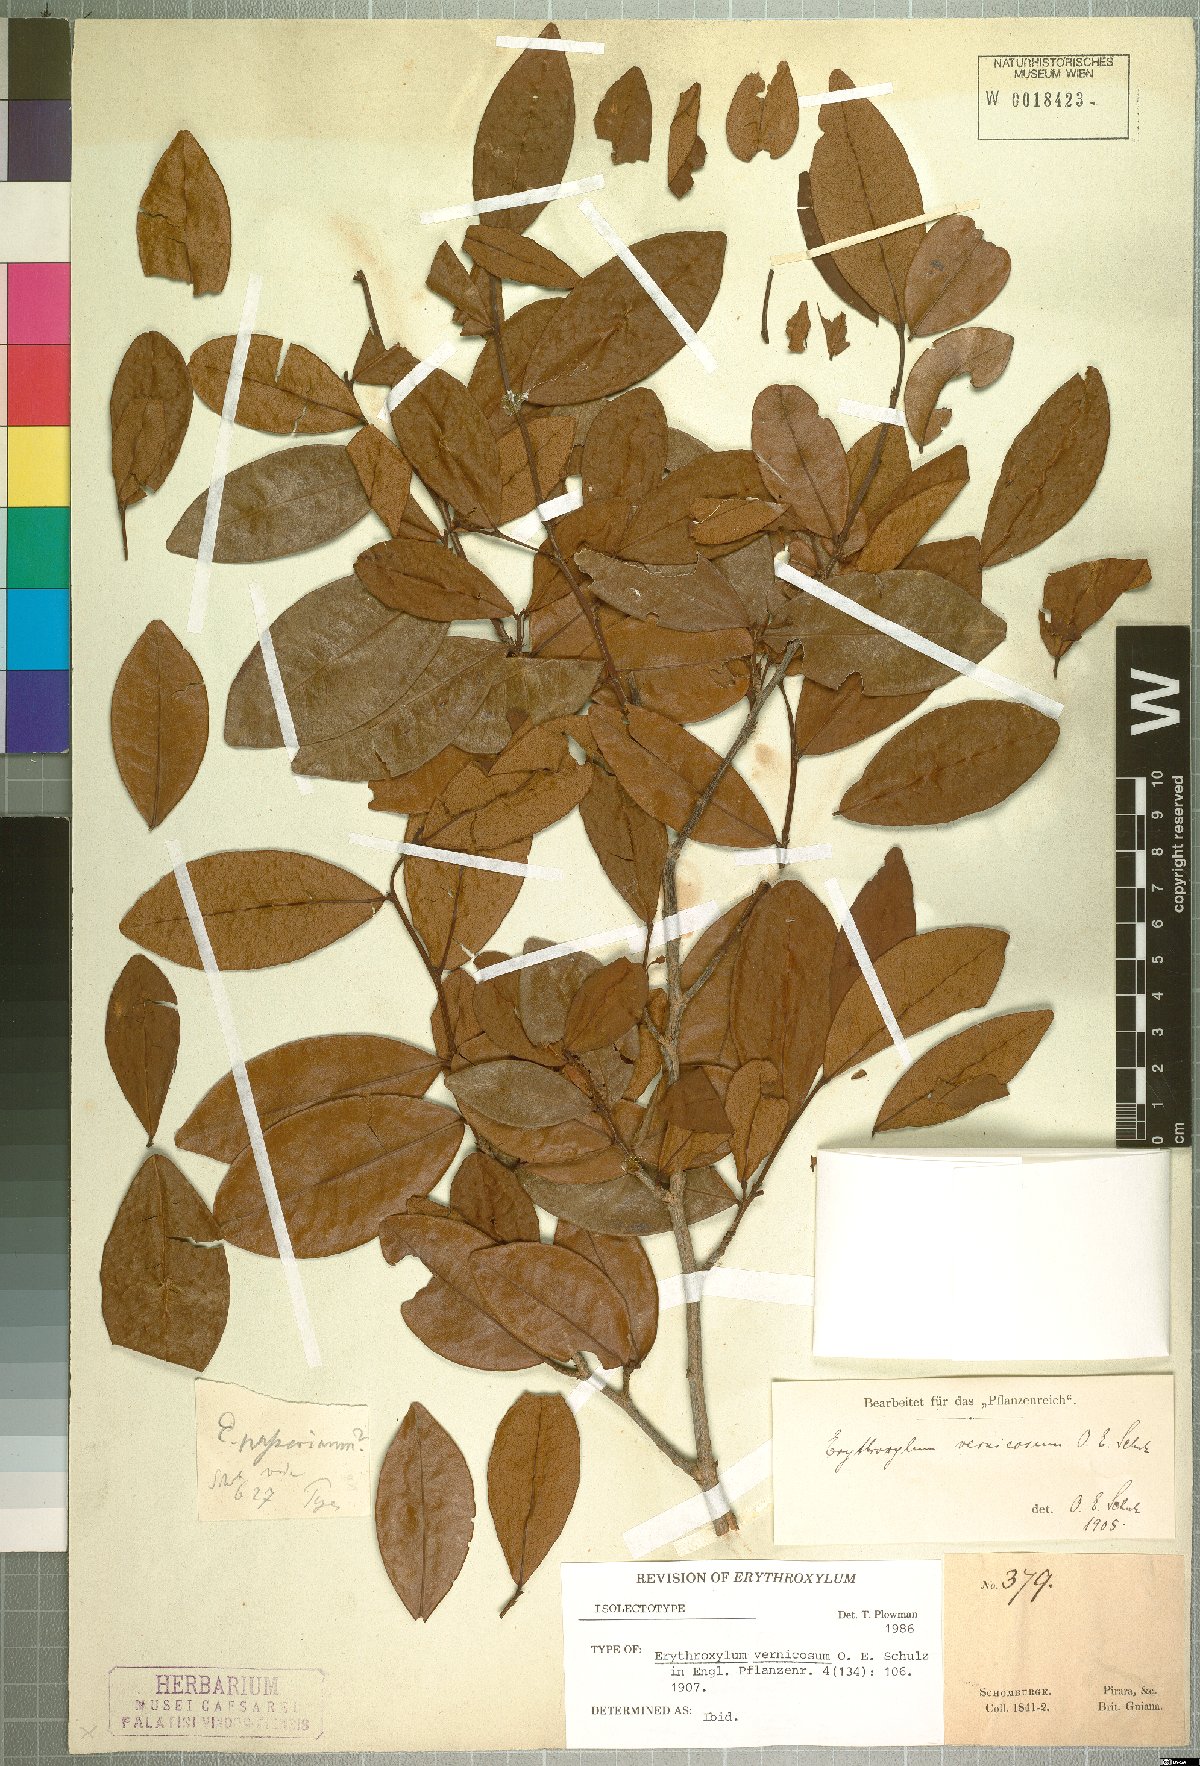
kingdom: Plantae
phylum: Tracheophyta
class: Magnoliopsida
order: Malpighiales
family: Erythroxylaceae
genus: Erythroxylum
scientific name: Erythroxylum vernicosum
